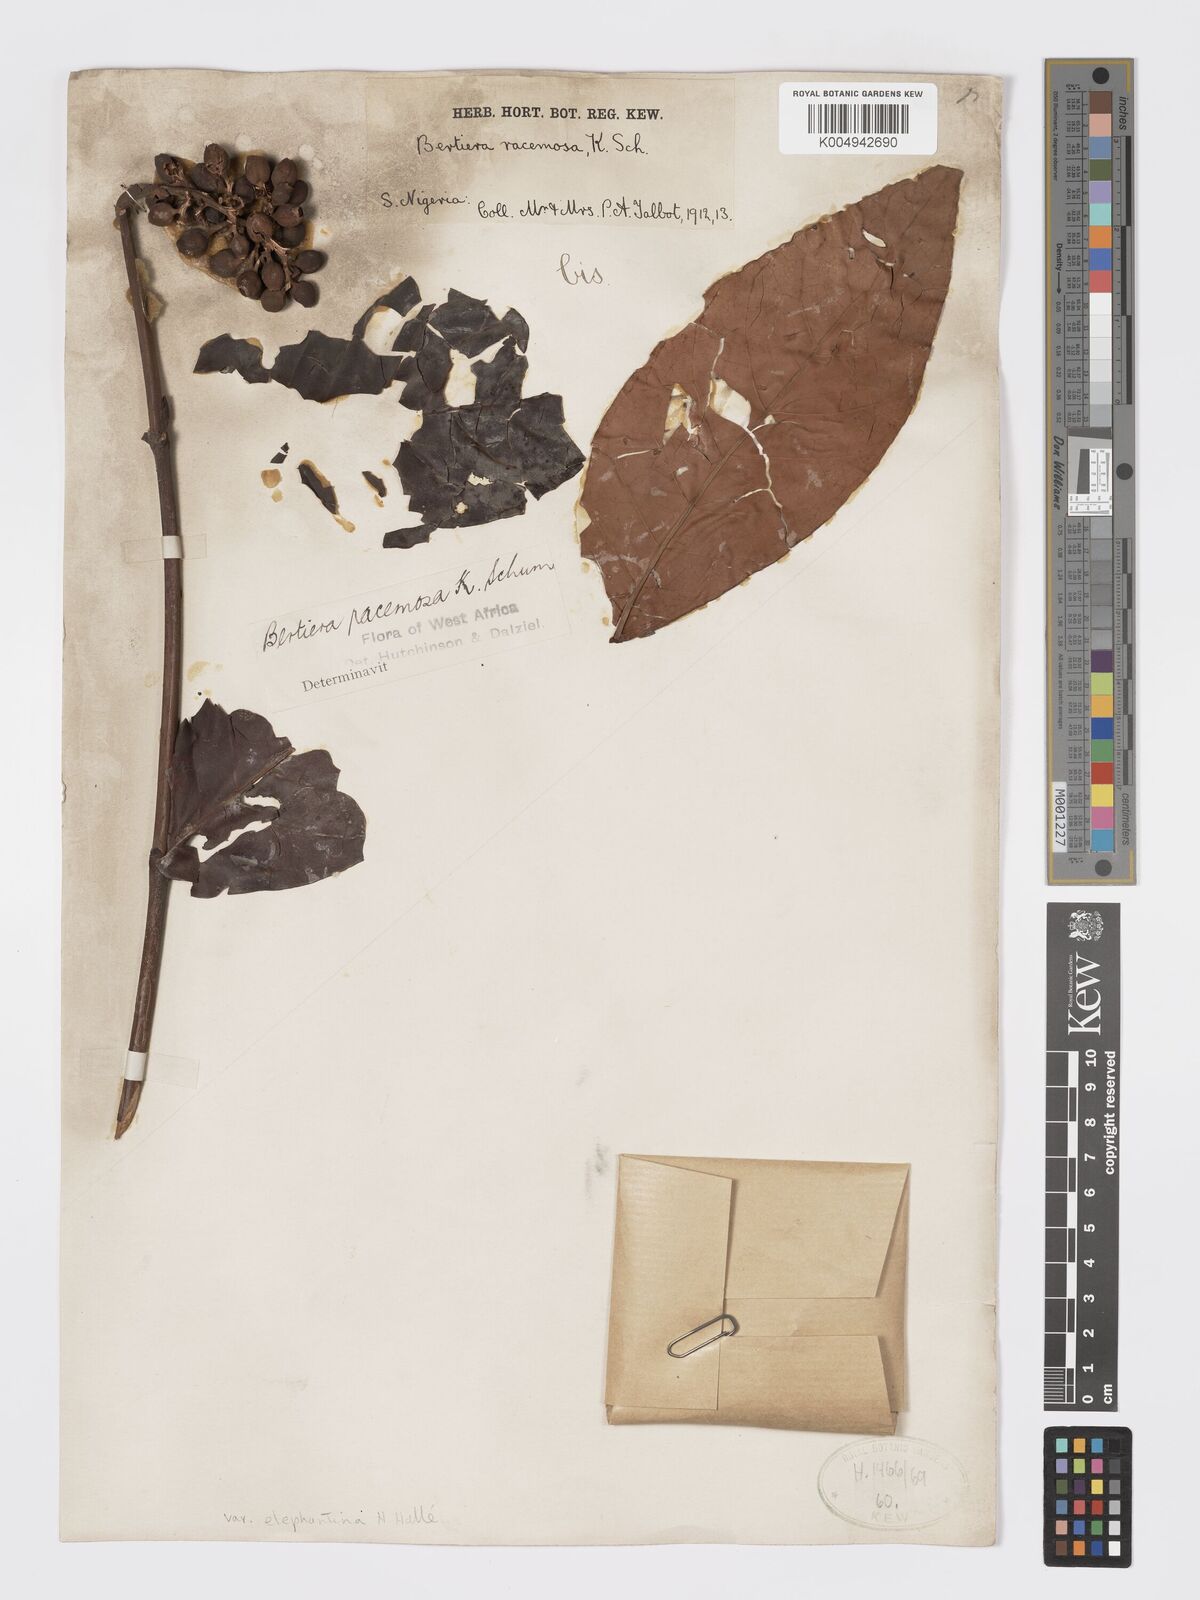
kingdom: Plantae
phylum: Tracheophyta
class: Magnoliopsida
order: Gentianales
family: Rubiaceae
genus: Bertiera
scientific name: Bertiera racemosa
